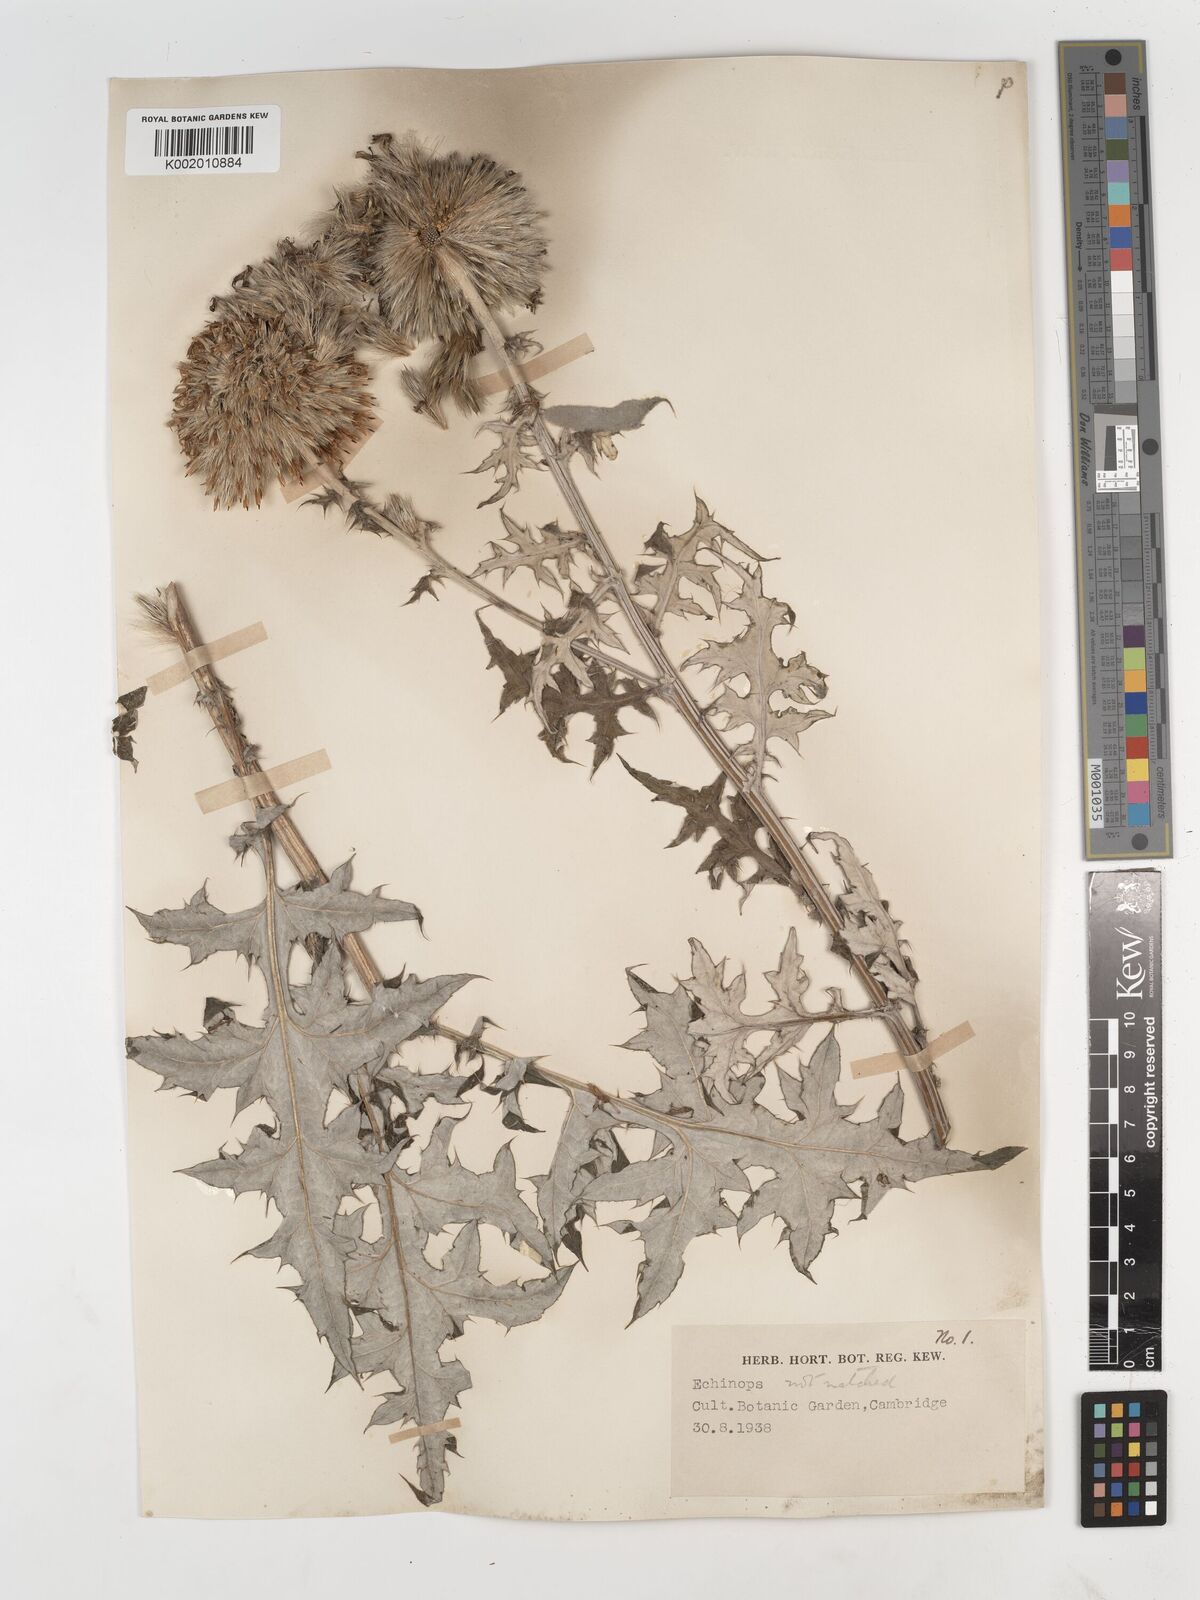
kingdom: Plantae
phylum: Tracheophyta
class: Magnoliopsida
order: Asterales
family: Asteraceae
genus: Echinops
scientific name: Echinops
